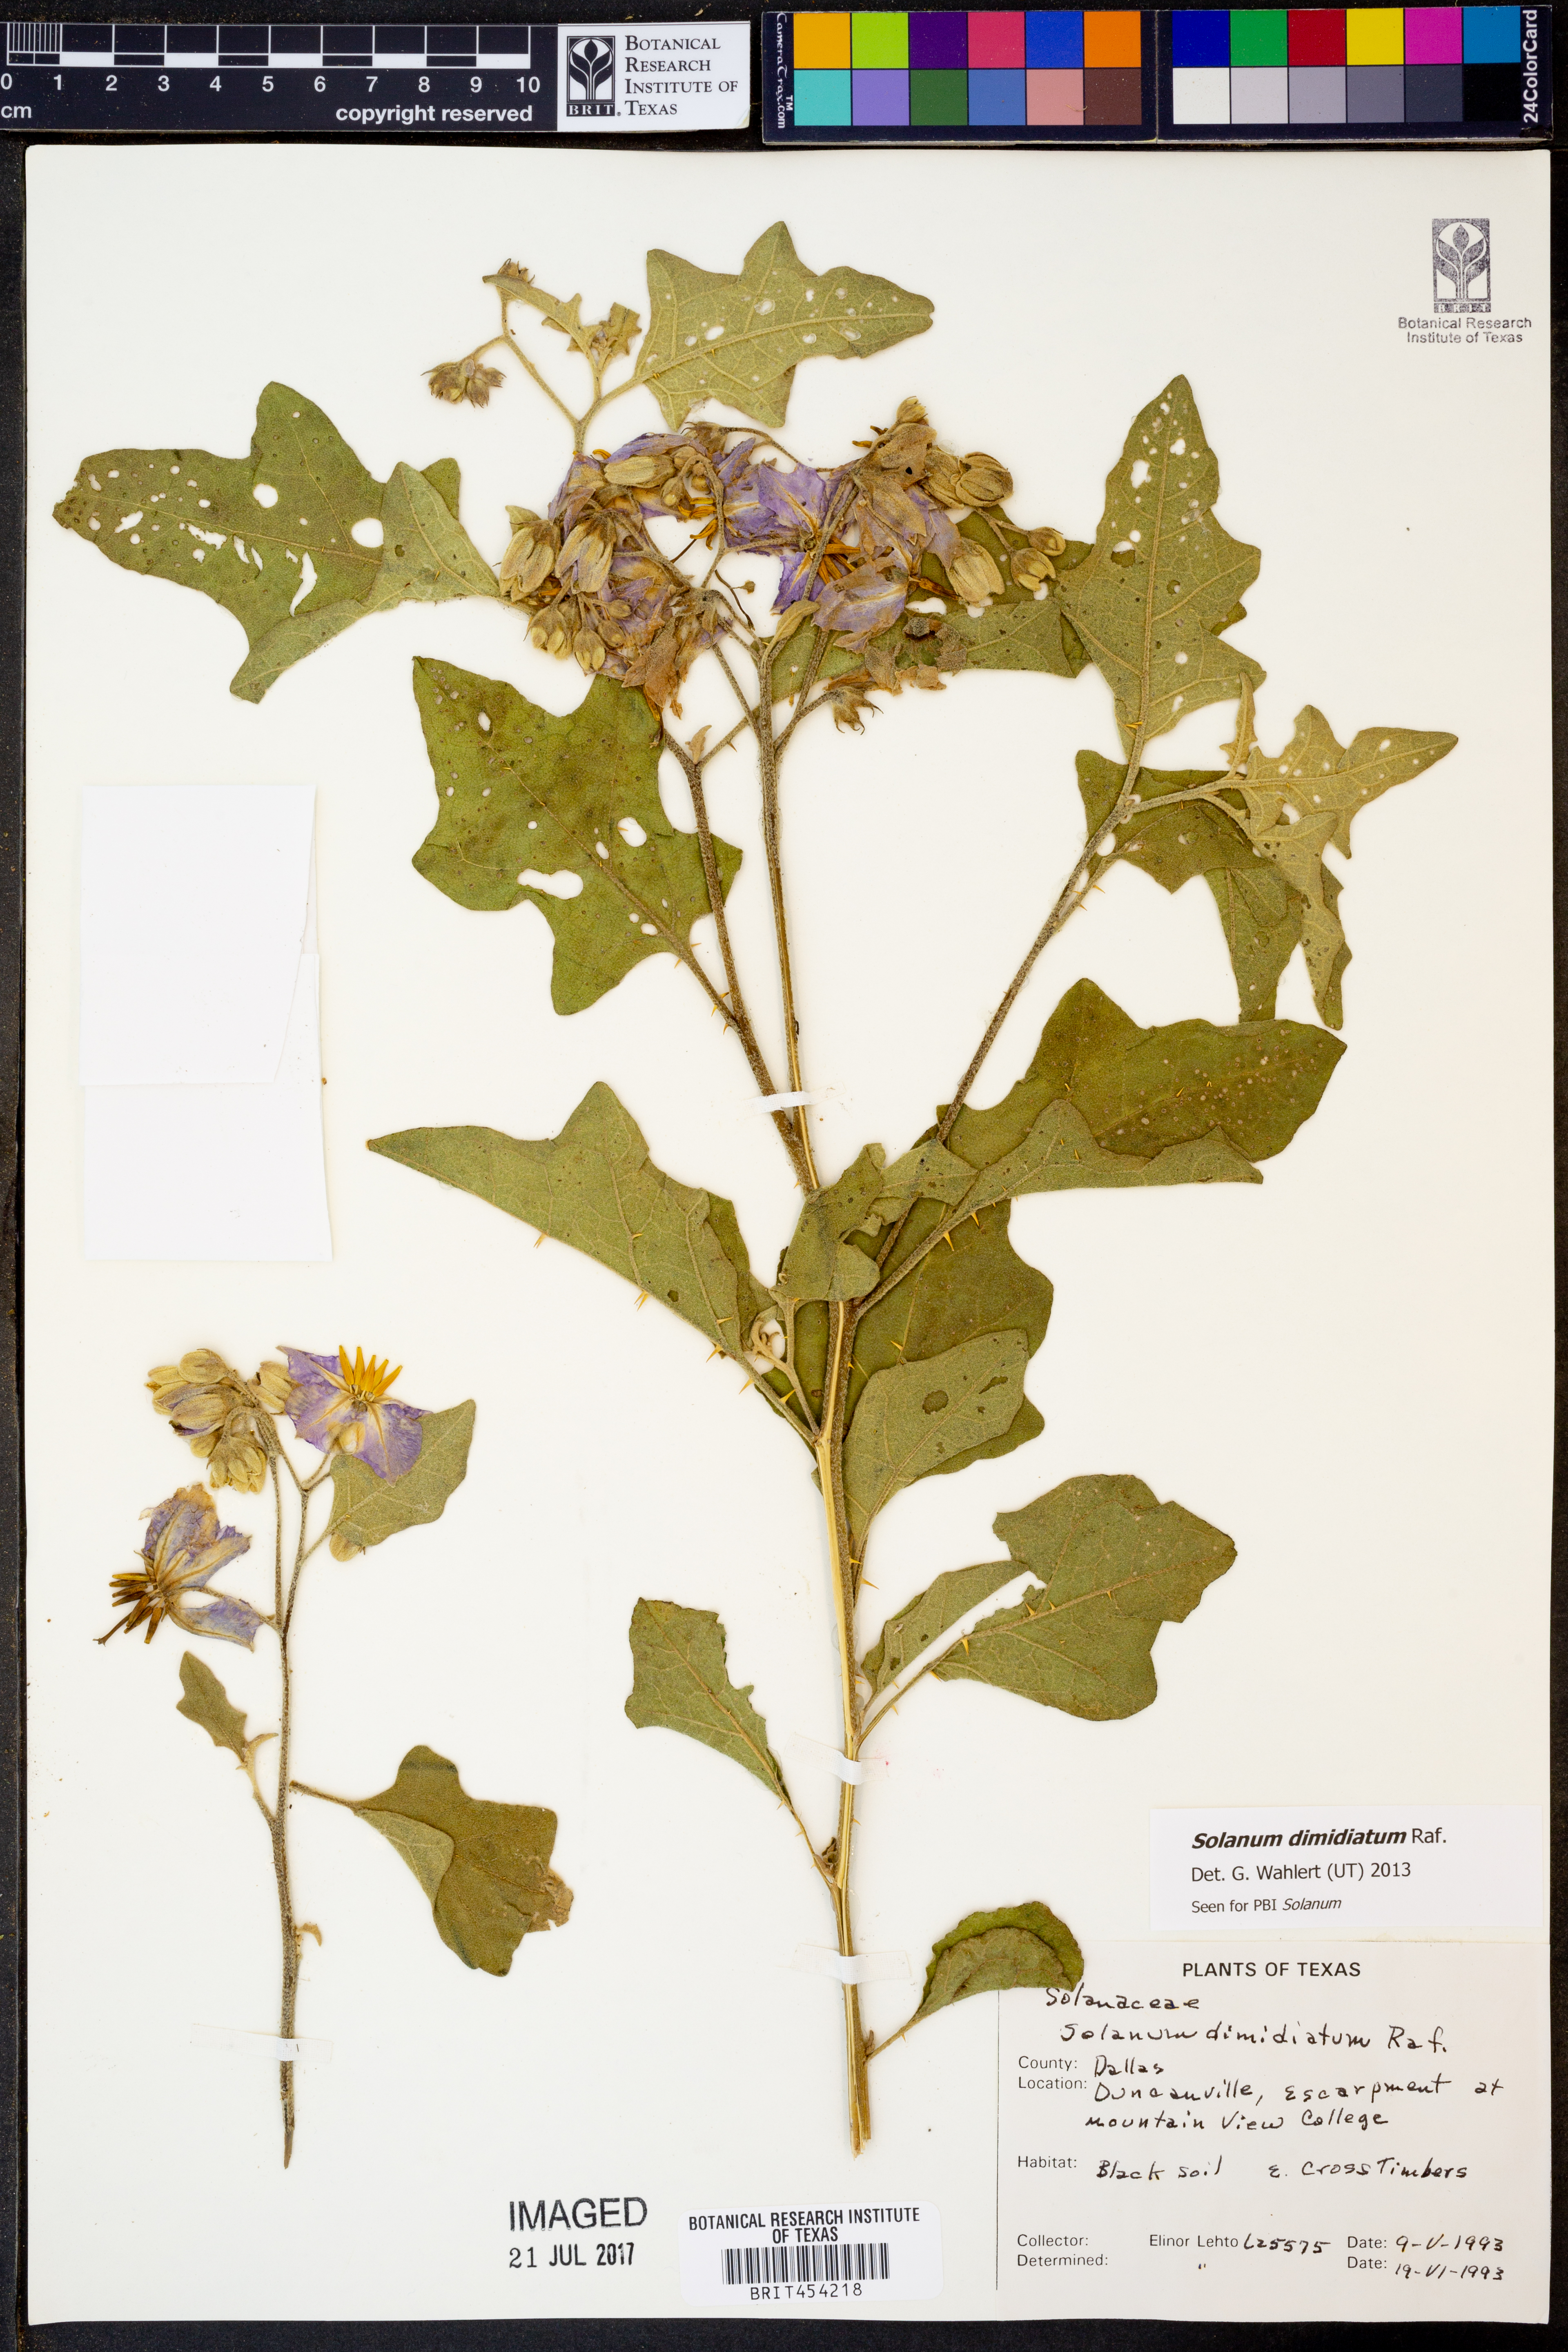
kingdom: Plantae
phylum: Tracheophyta
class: Magnoliopsida
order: Solanales
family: Solanaceae
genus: Solanum
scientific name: Solanum dimidiatum
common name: Carolina horse-nettle
